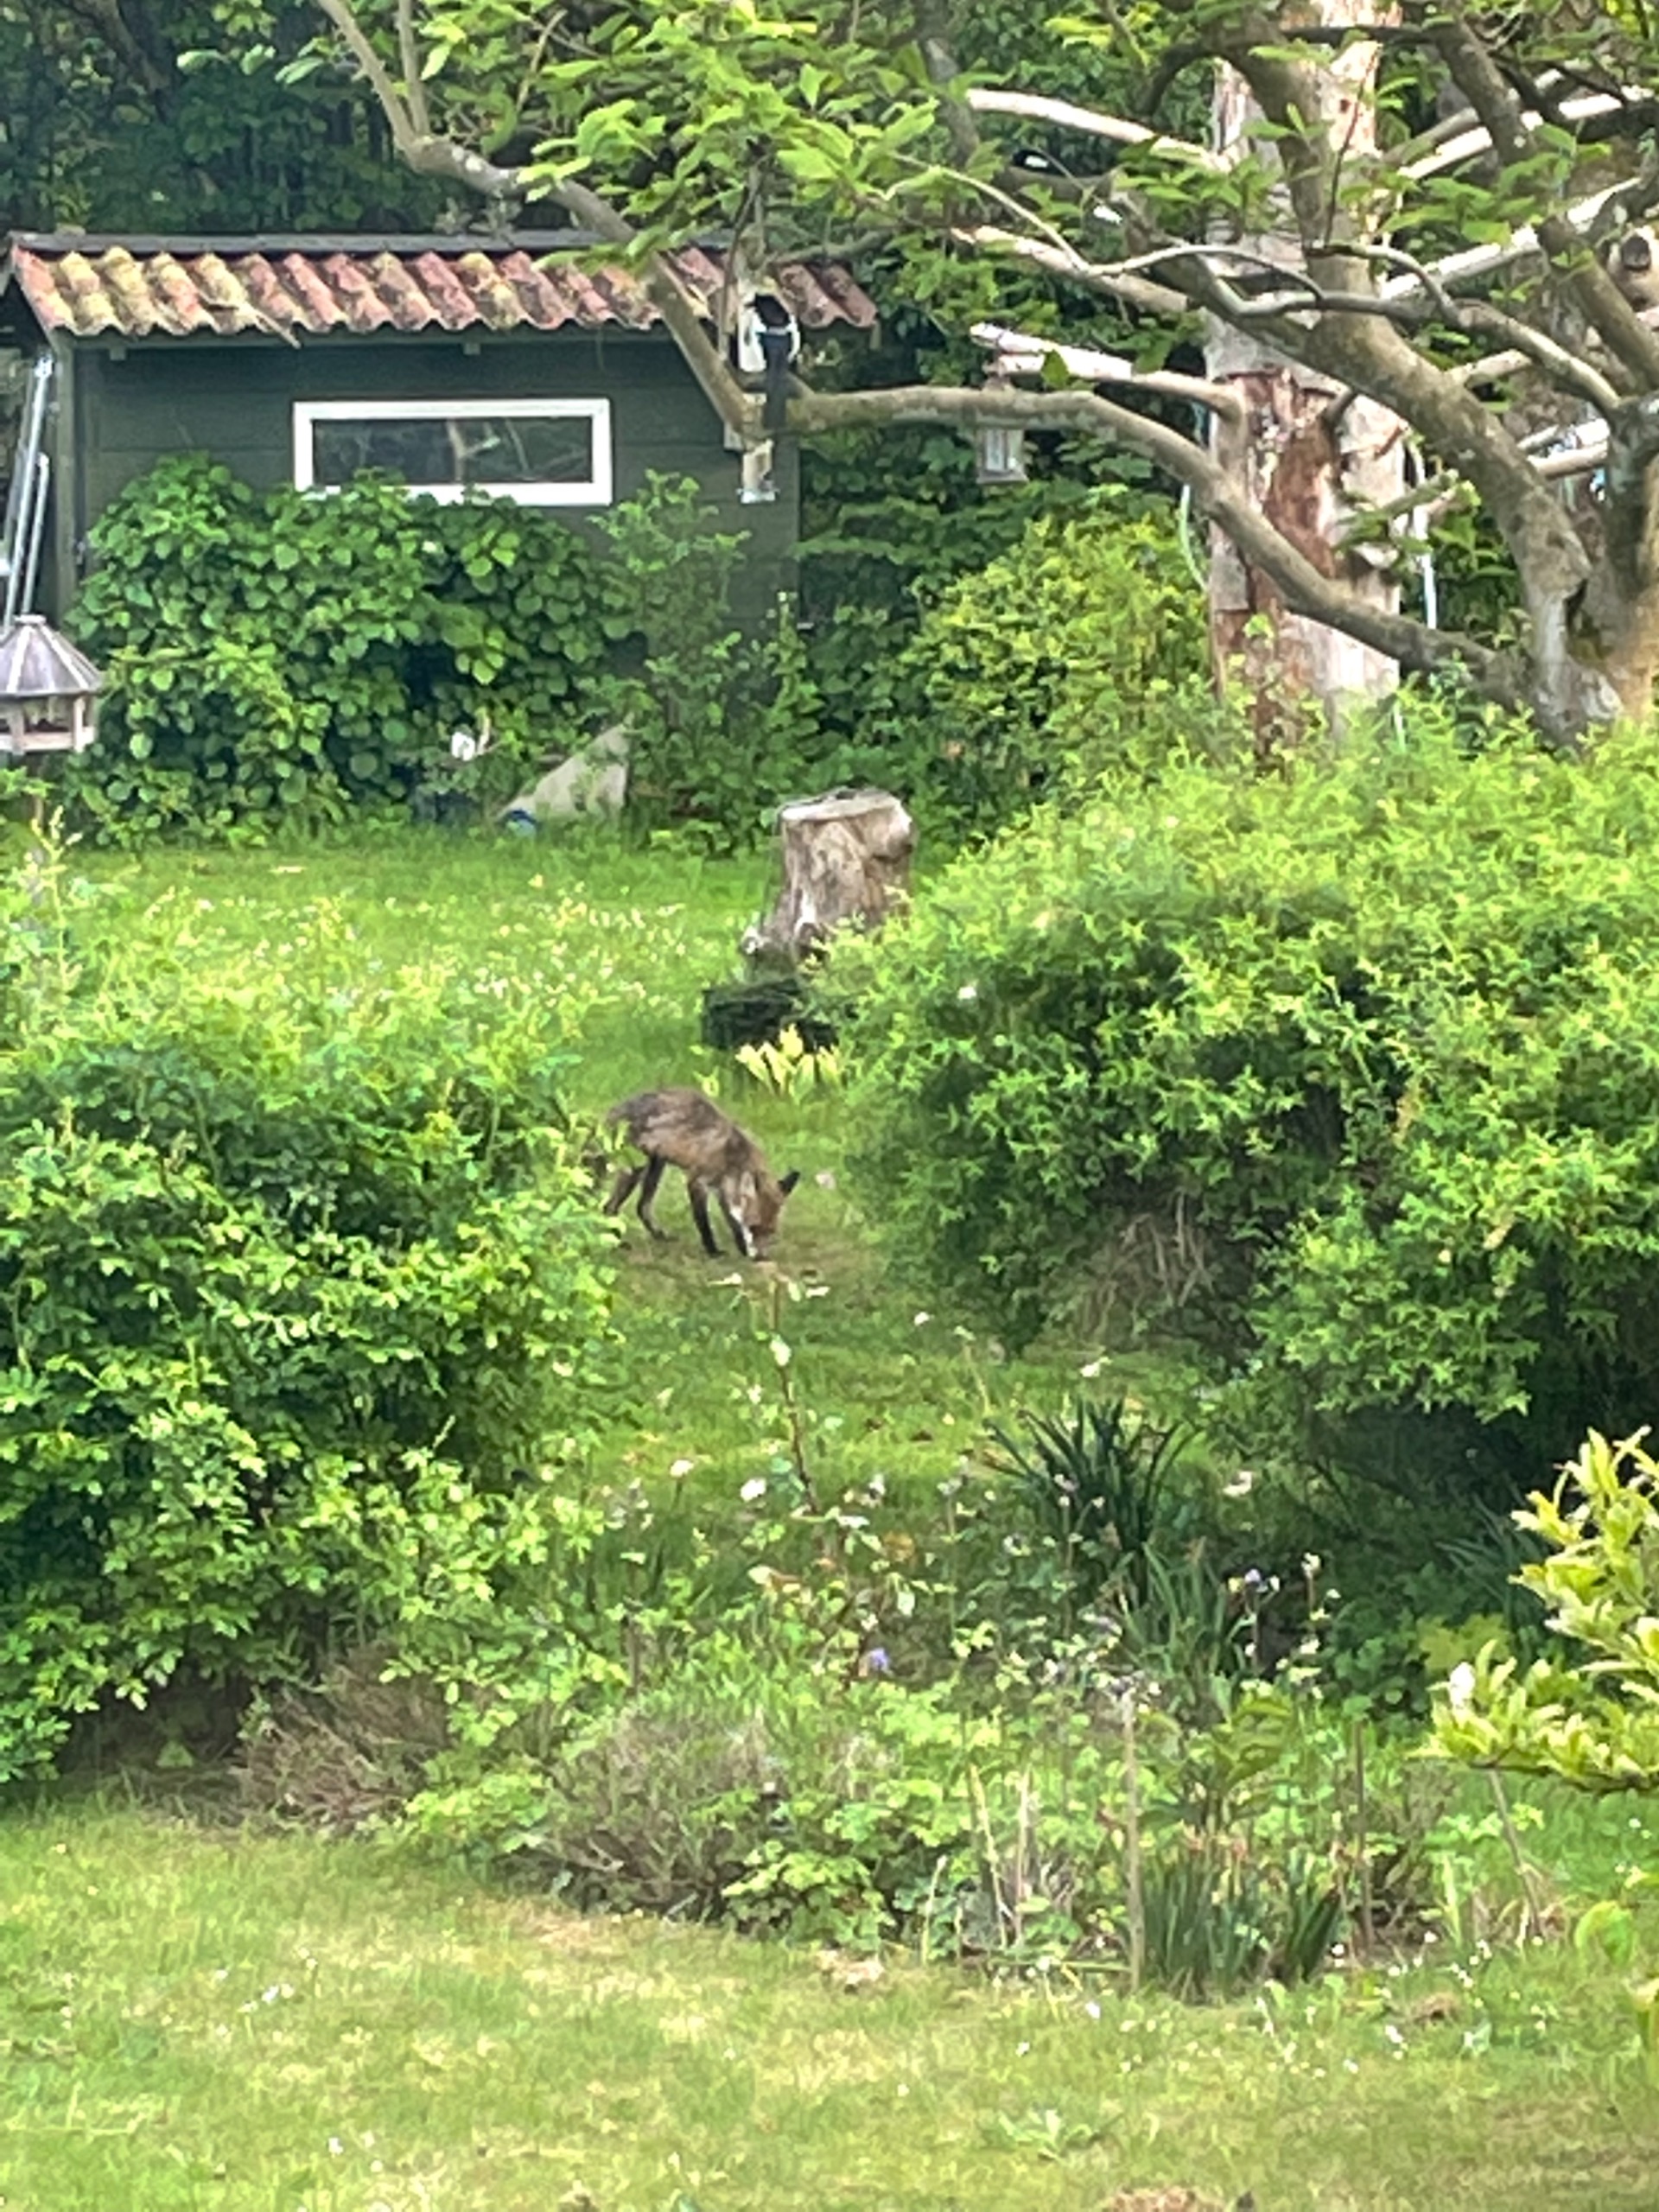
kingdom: Animalia
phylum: Chordata
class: Mammalia
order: Carnivora
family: Canidae
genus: Vulpes
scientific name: Vulpes vulpes
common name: Ræv
